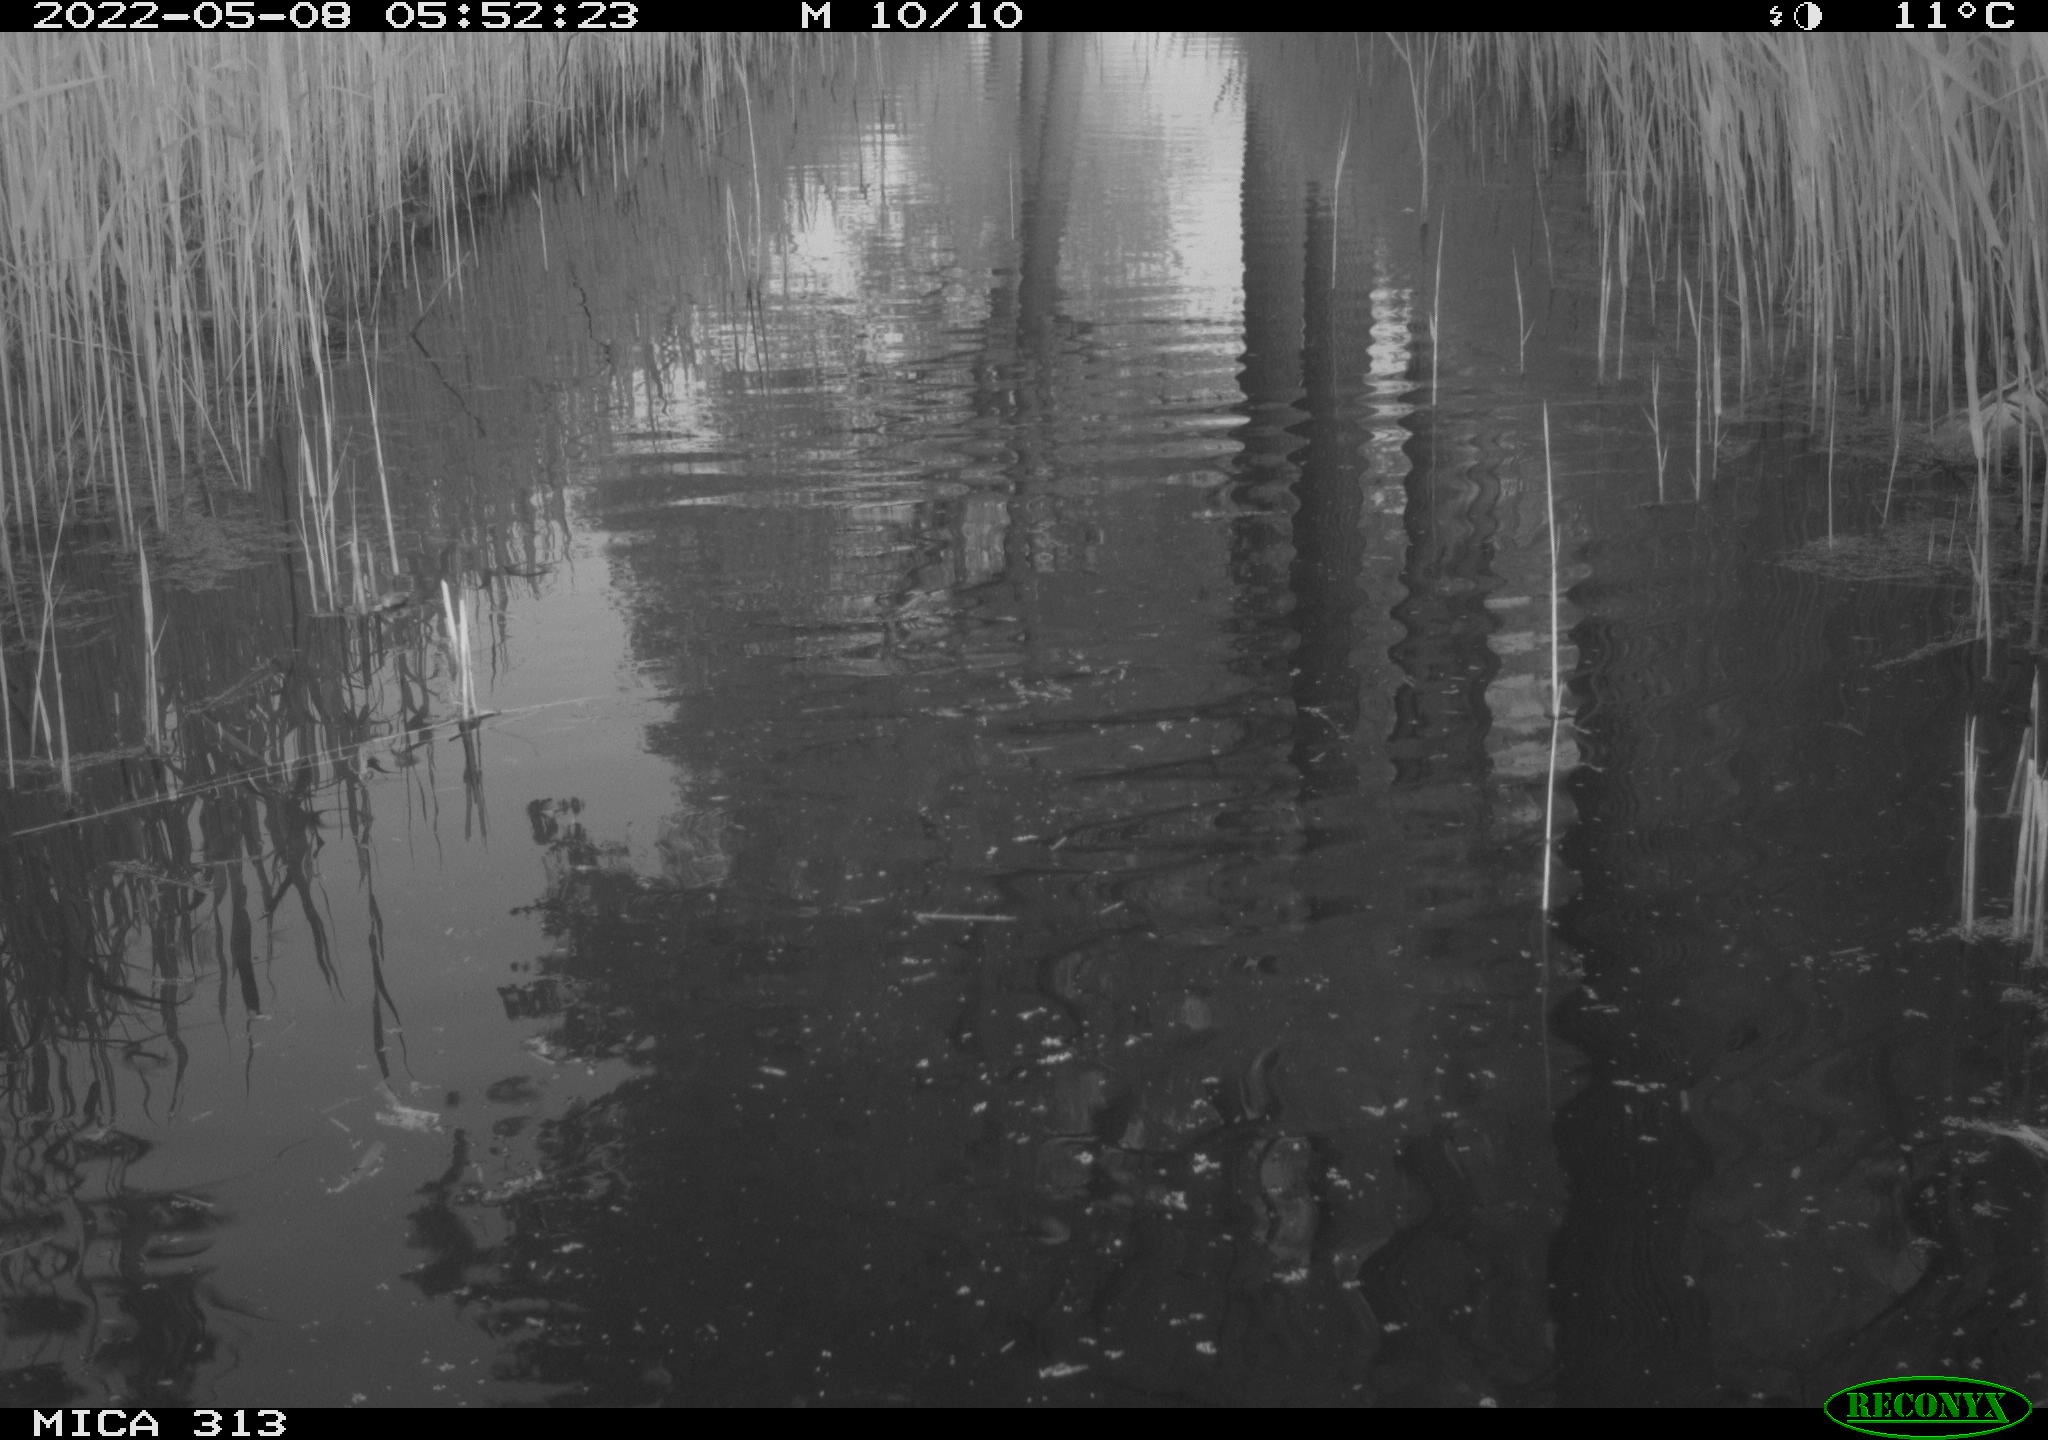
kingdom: Animalia
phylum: Chordata
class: Aves
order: Gruiformes
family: Rallidae
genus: Fulica
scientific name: Fulica atra
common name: Eurasian coot
